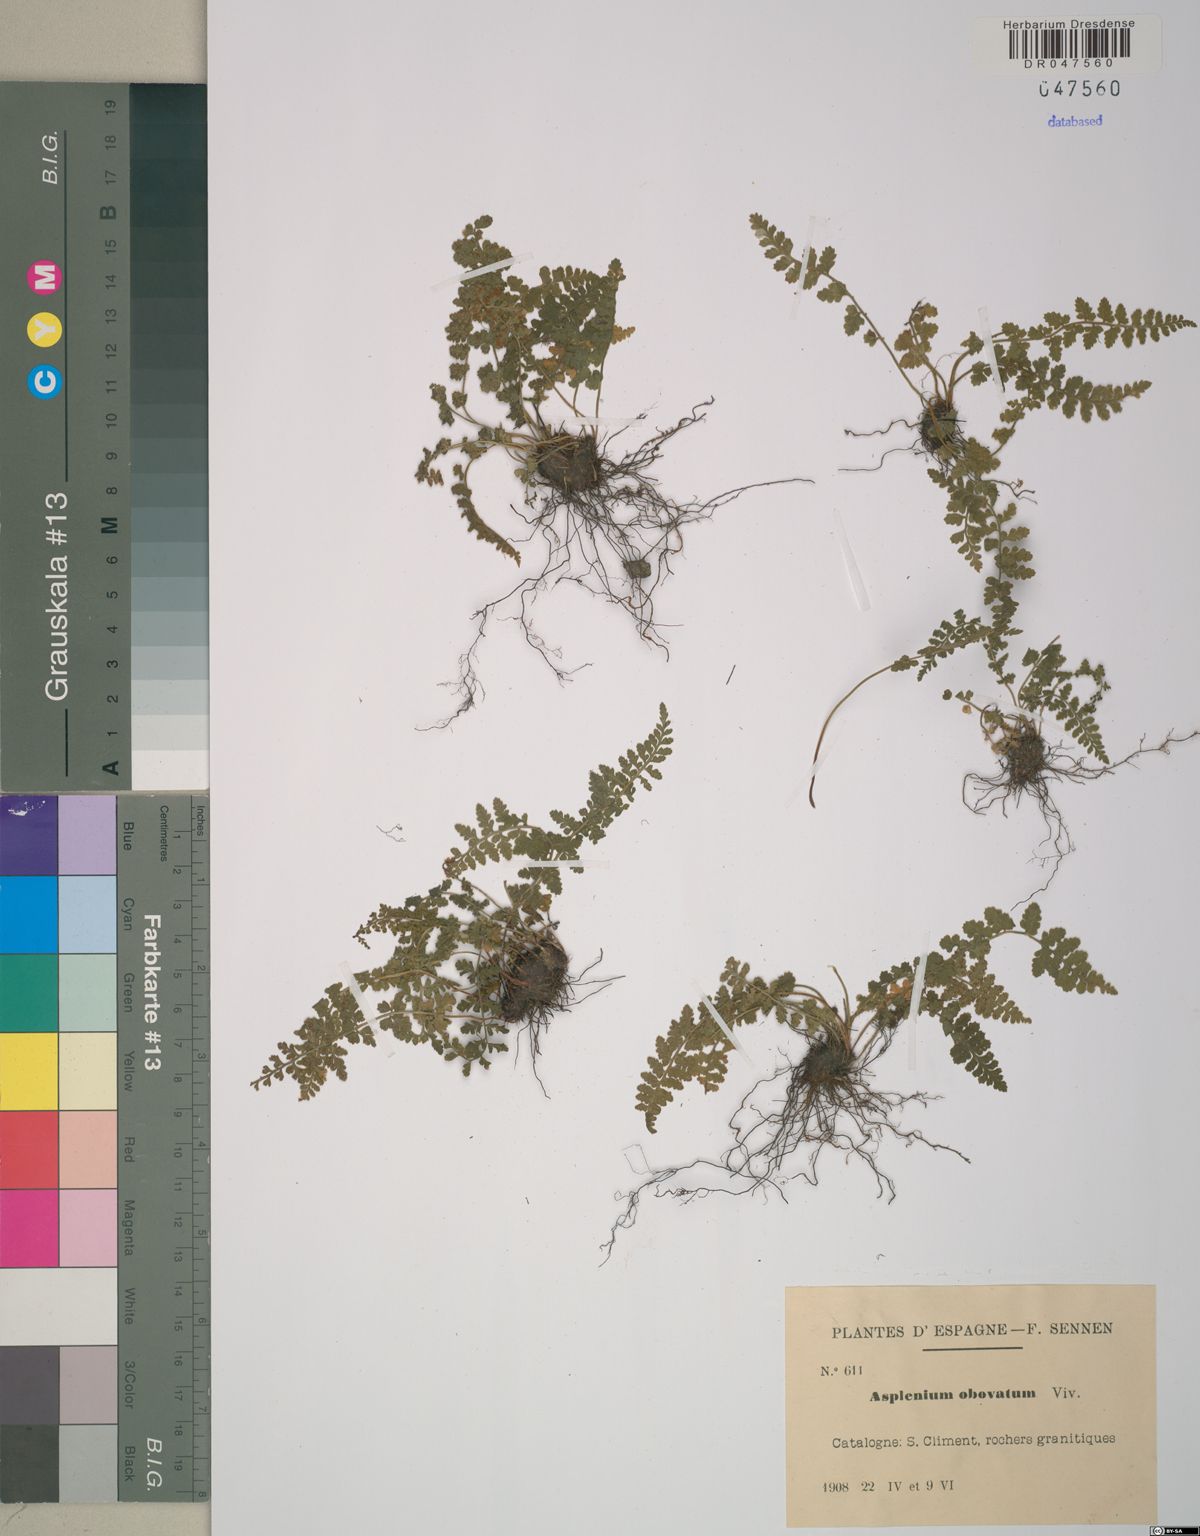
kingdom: Plantae
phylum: Tracheophyta
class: Polypodiopsida
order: Polypodiales
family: Aspleniaceae
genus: Asplenium
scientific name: Asplenium obovatum
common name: Lanceolate spleenwort
